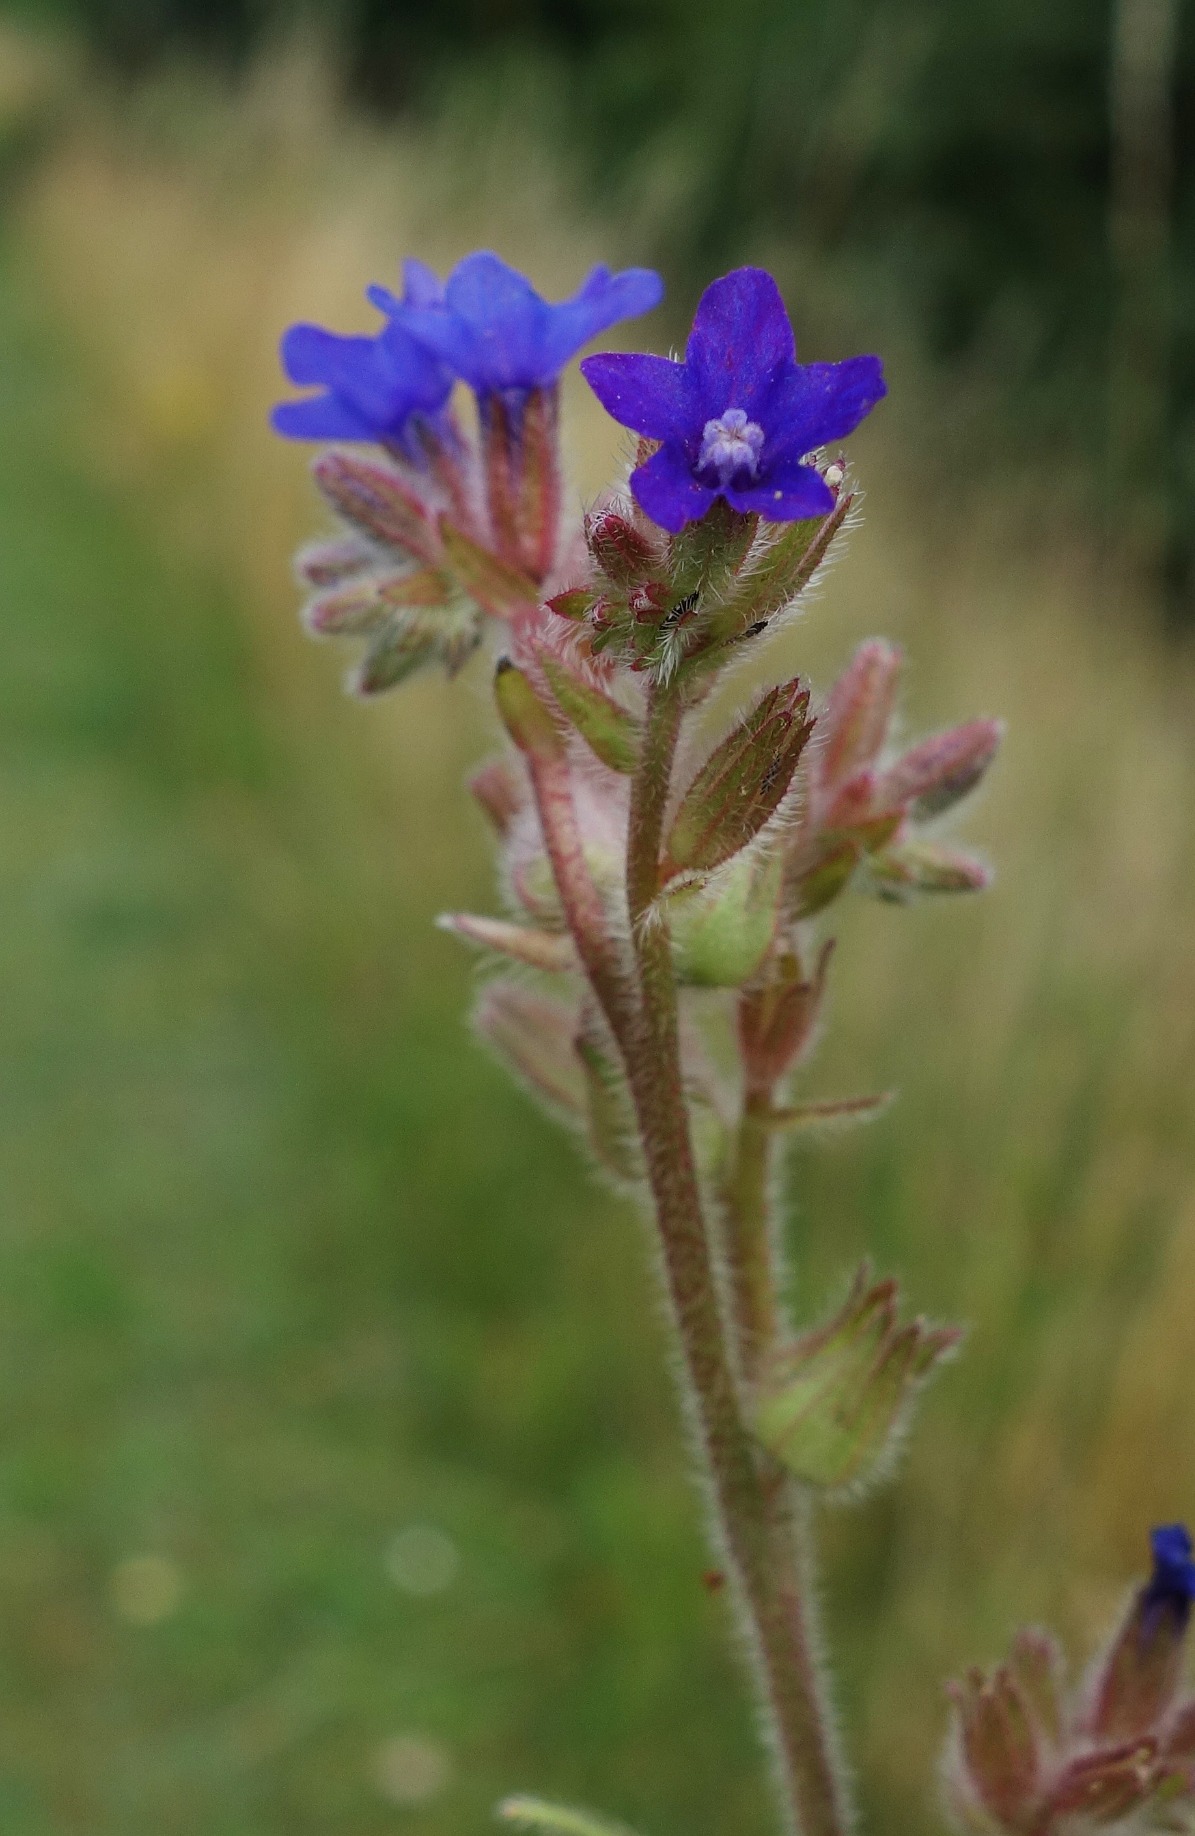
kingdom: Plantae
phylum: Tracheophyta
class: Magnoliopsida
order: Boraginales
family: Boraginaceae
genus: Anchusa
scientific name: Anchusa officinalis
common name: Læge-oksetunge
